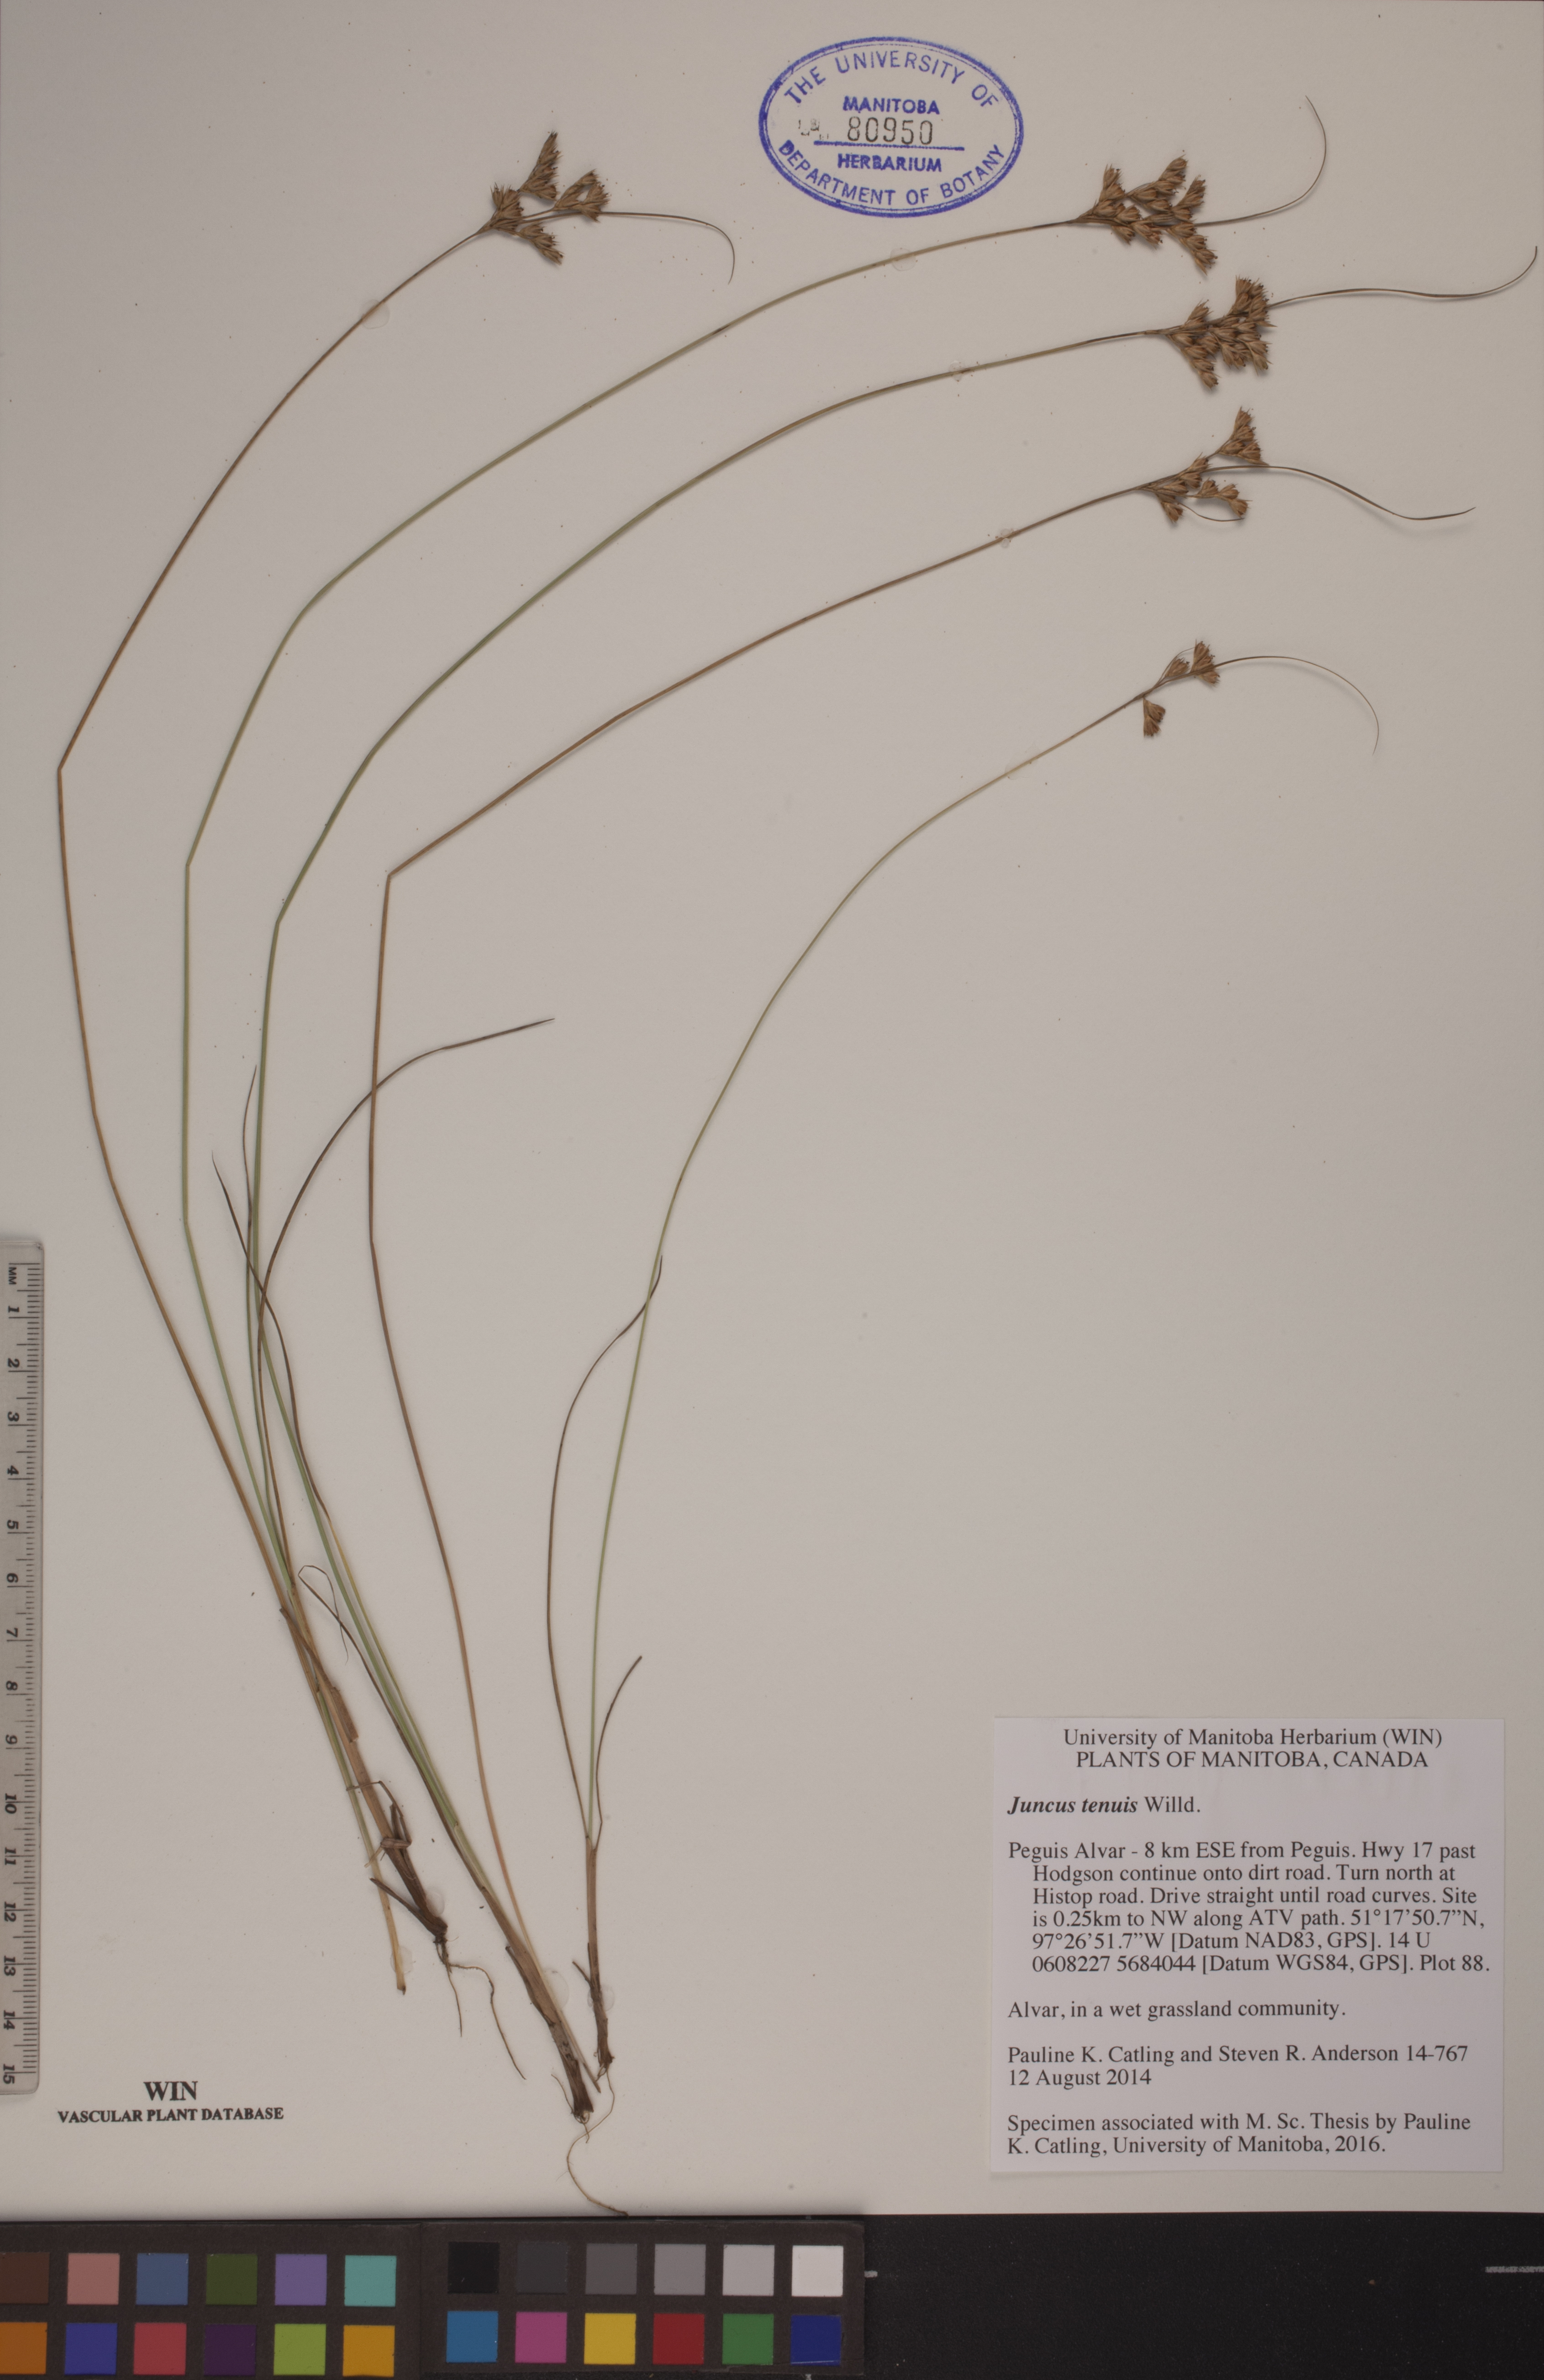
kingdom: Plantae
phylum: Tracheophyta
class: Liliopsida
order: Poales
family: Juncaceae
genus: Juncus
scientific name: Juncus tenuis
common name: Slender rush
